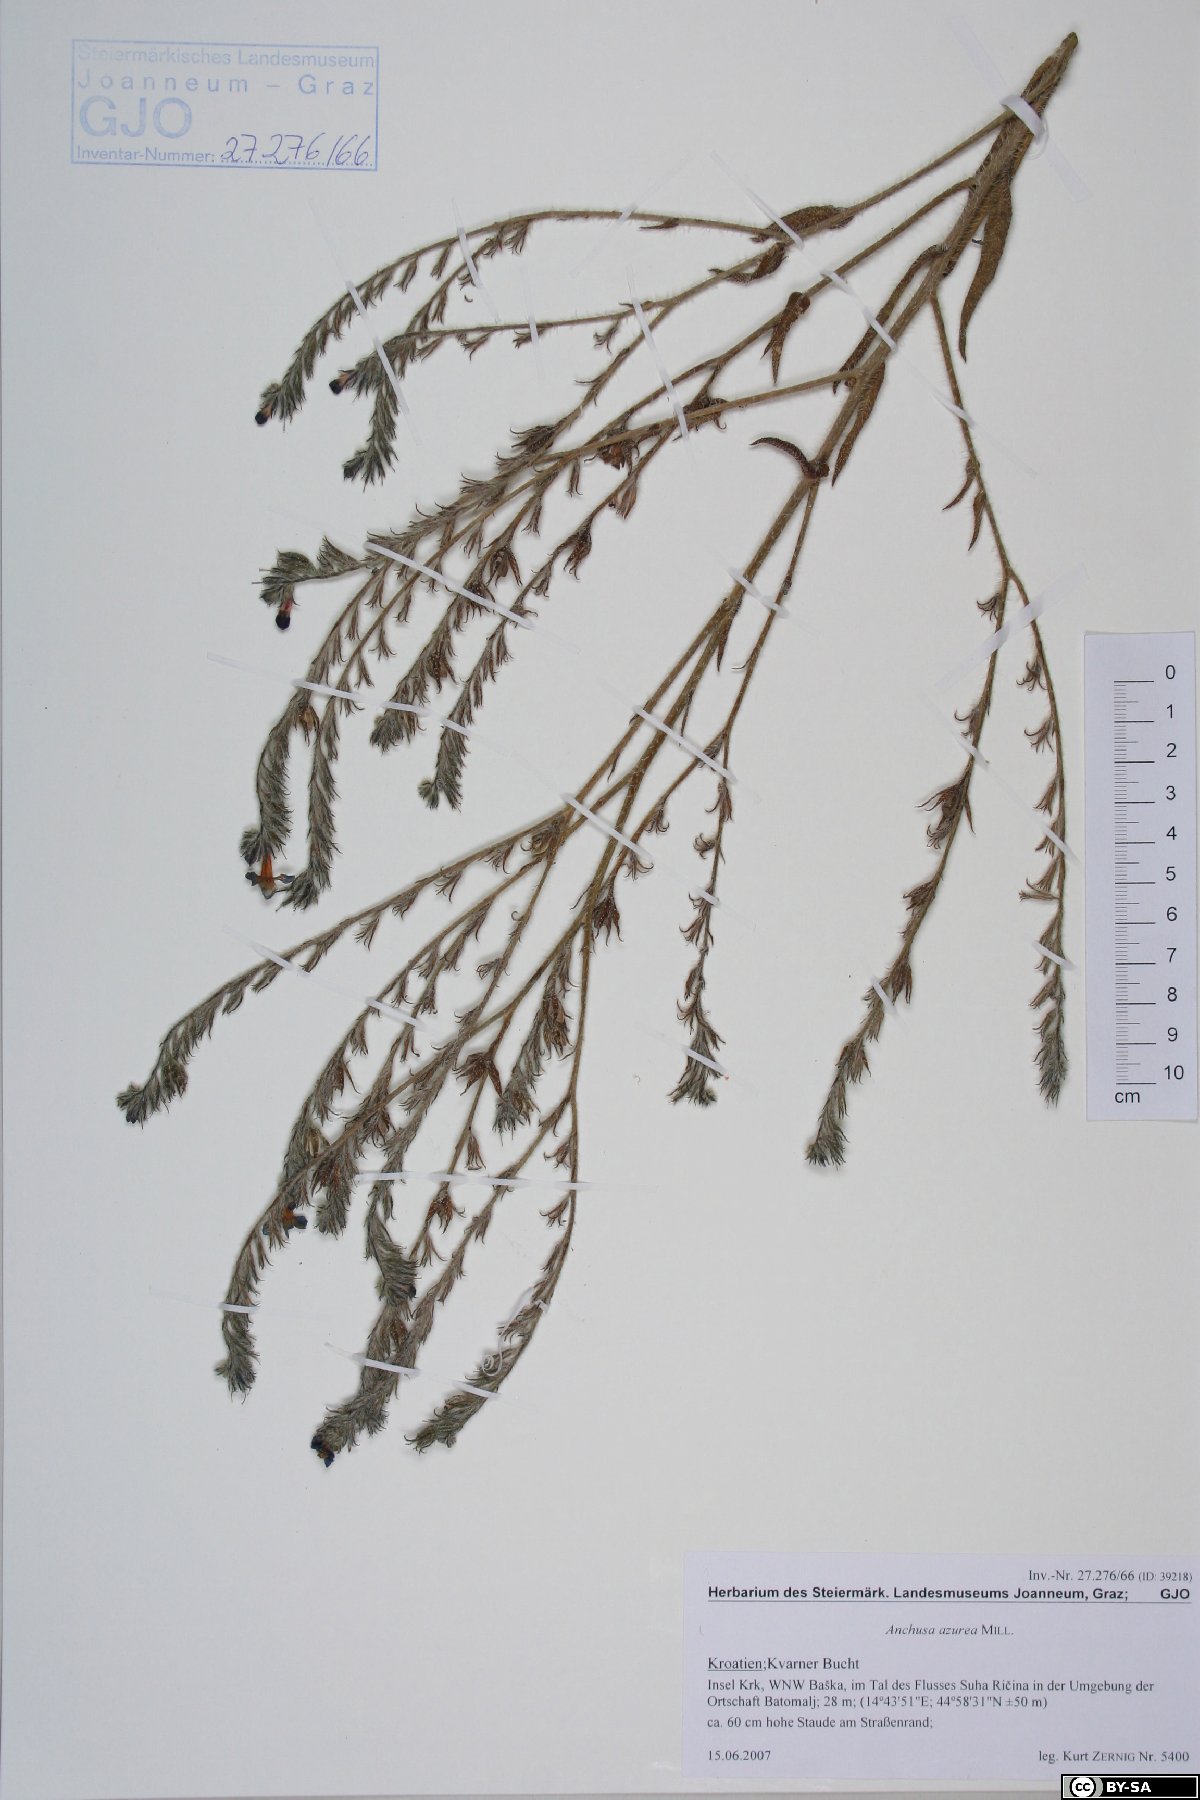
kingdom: Plantae
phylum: Tracheophyta
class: Magnoliopsida
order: Boraginales
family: Boraginaceae
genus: Anchusa
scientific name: Anchusa azurea
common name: Garden anchusa
